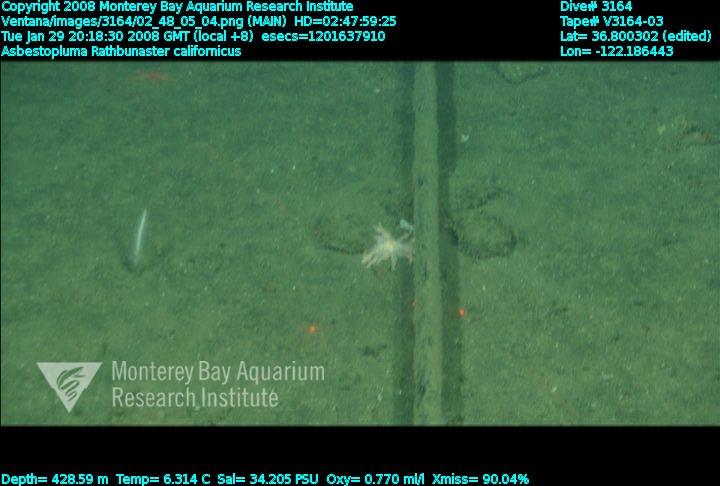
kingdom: Animalia
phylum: Porifera
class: Demospongiae
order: Poecilosclerida
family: Cladorhizidae
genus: Asbestopluma
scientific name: Asbestopluma
